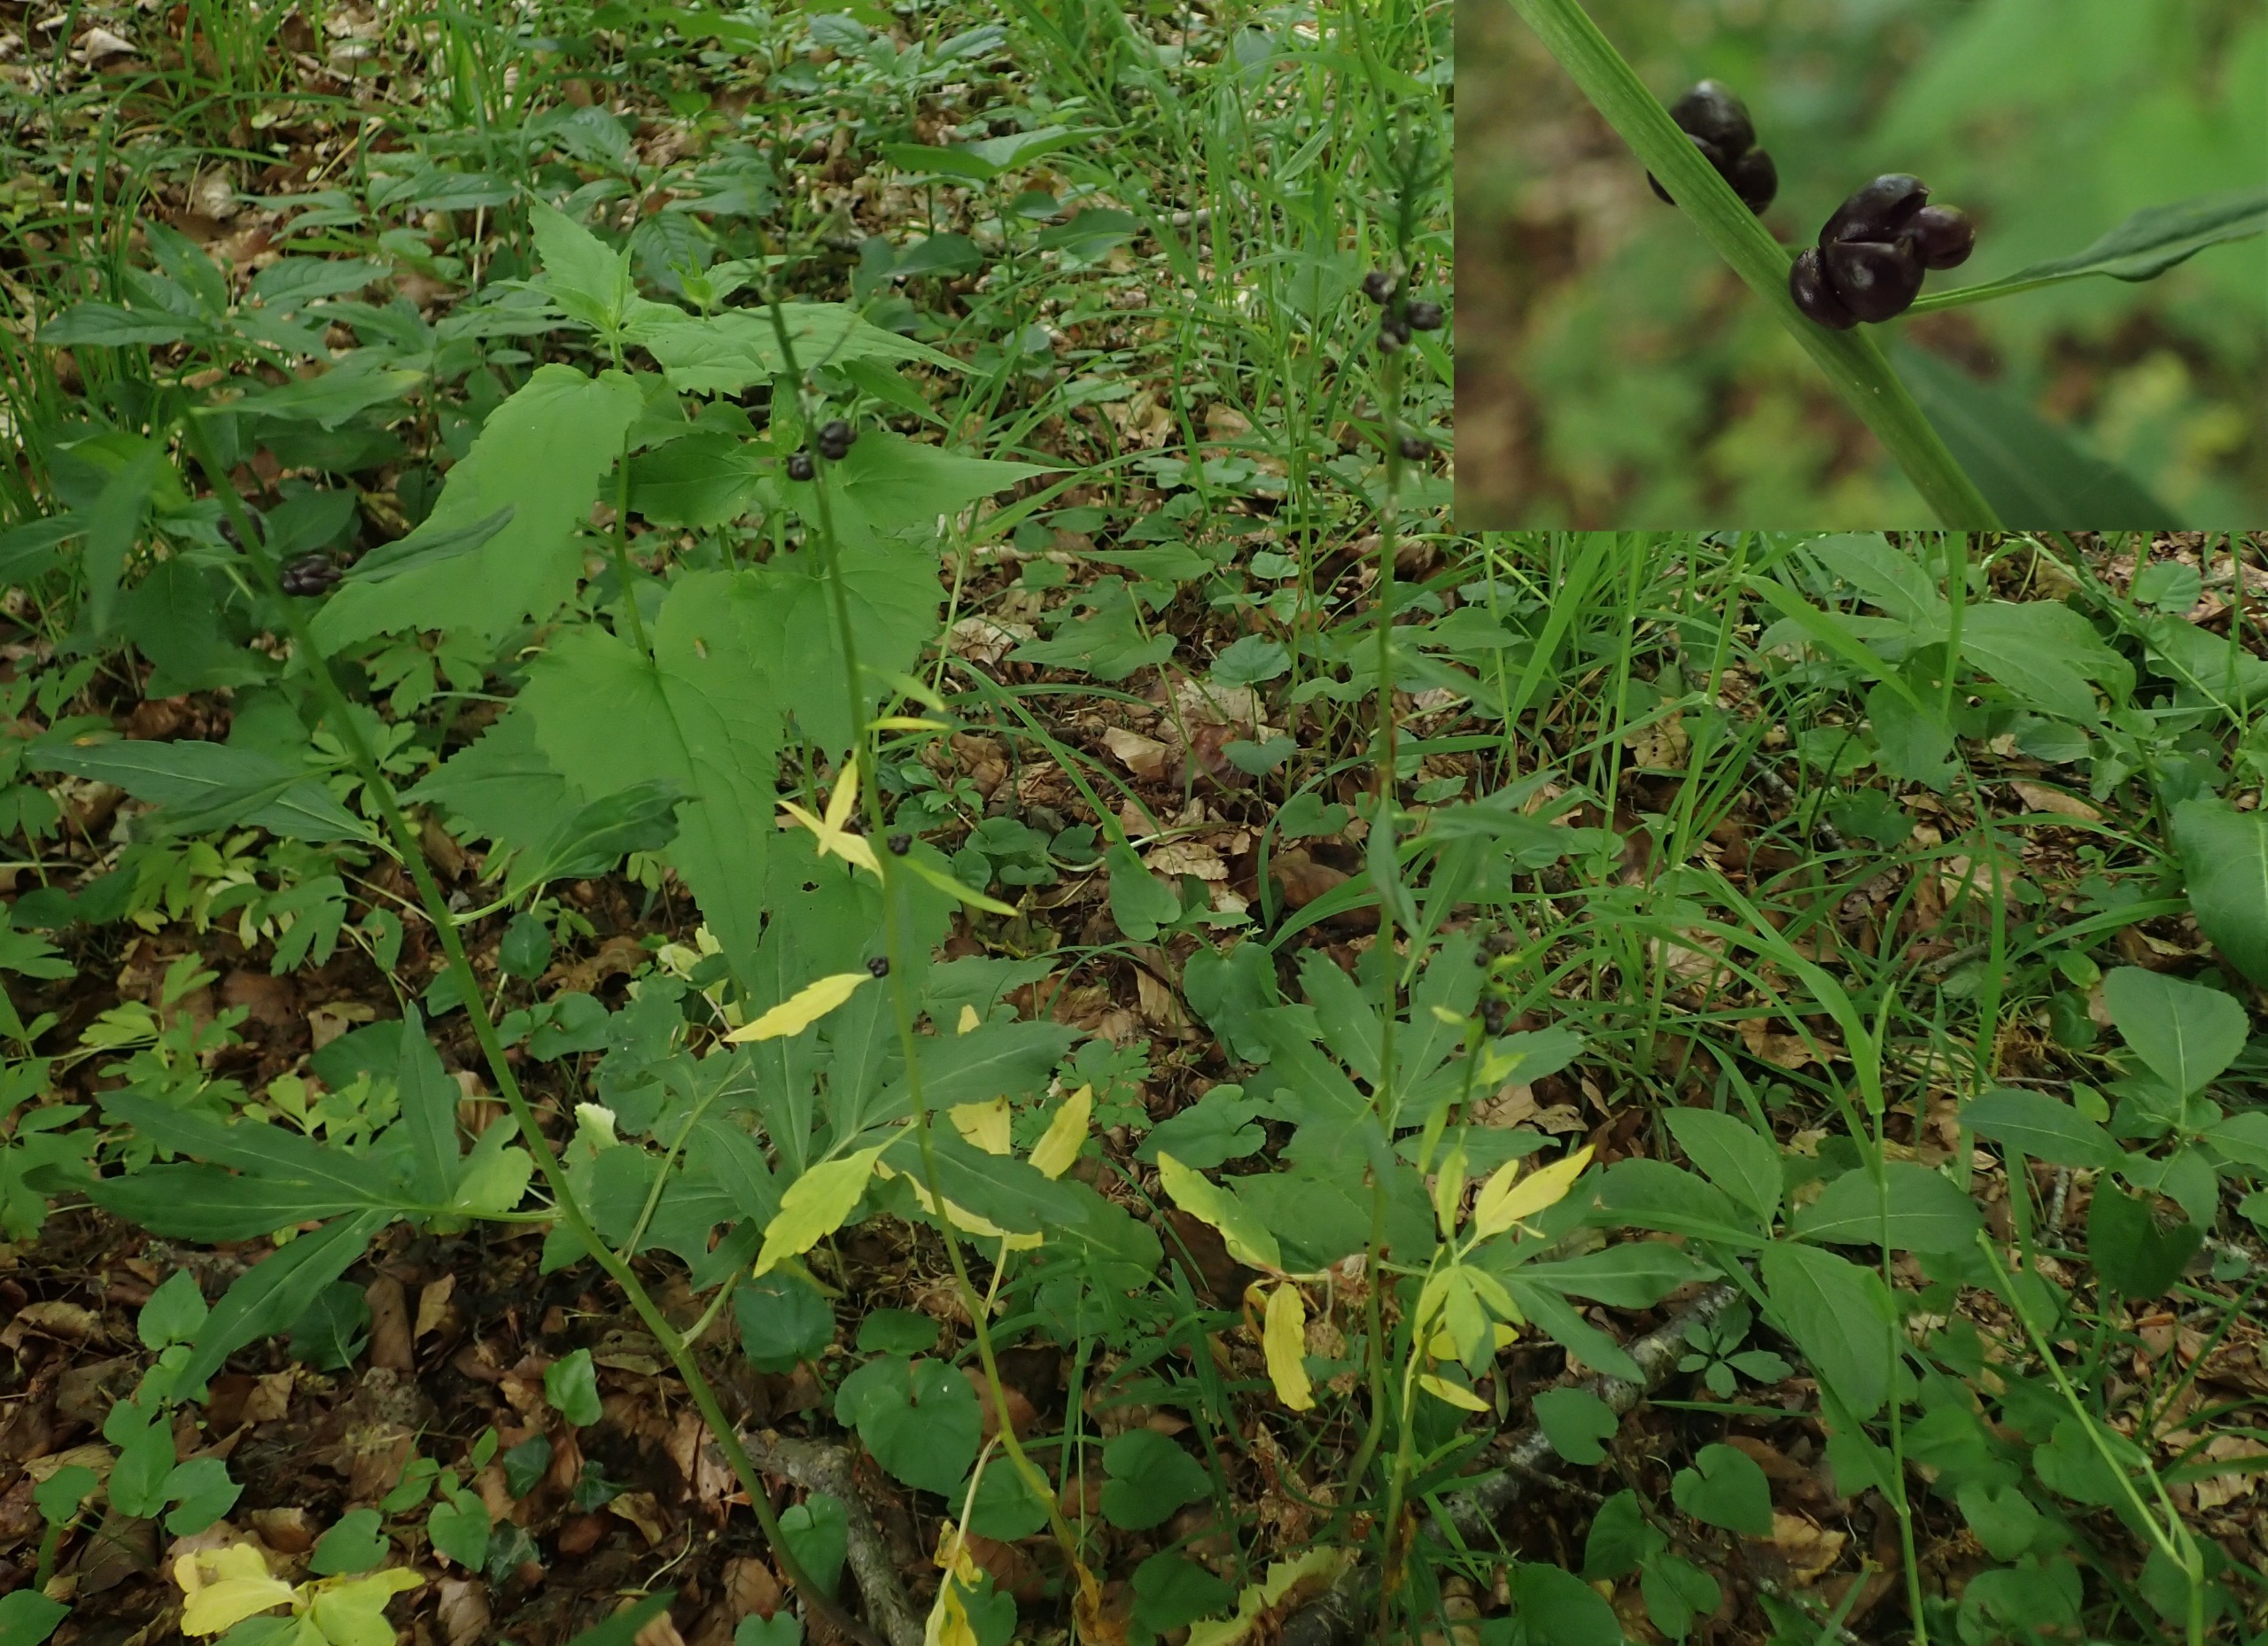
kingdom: Plantae
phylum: Tracheophyta
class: Magnoliopsida
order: Brassicales
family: Brassicaceae
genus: Cardamine
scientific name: Cardamine bulbifera
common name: Tandrod
